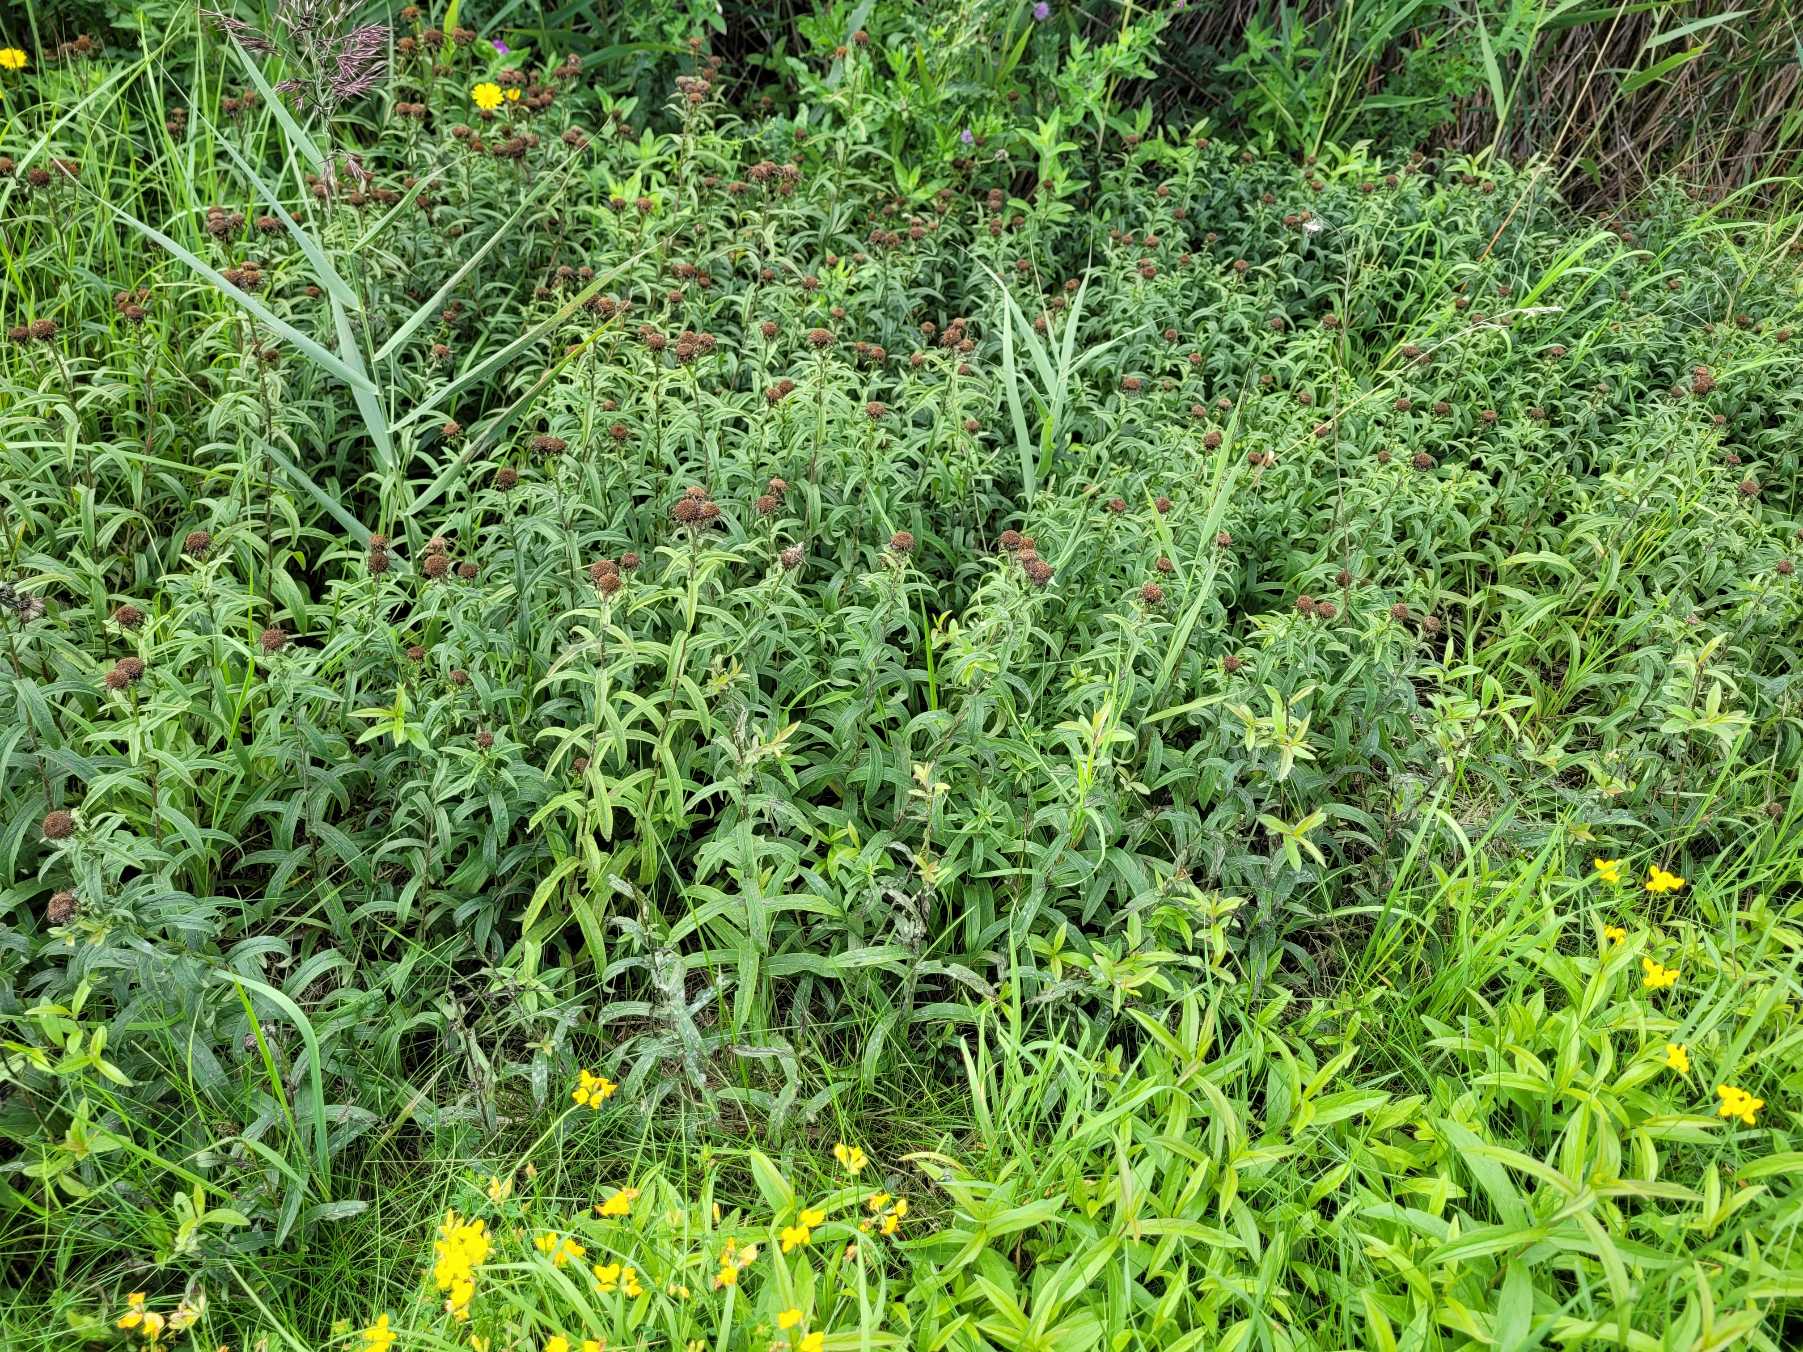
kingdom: Plantae
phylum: Tracheophyta
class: Magnoliopsida
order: Asterales
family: Asteraceae
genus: Pentanema
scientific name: Pentanema salicinum
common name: Pile-alant
